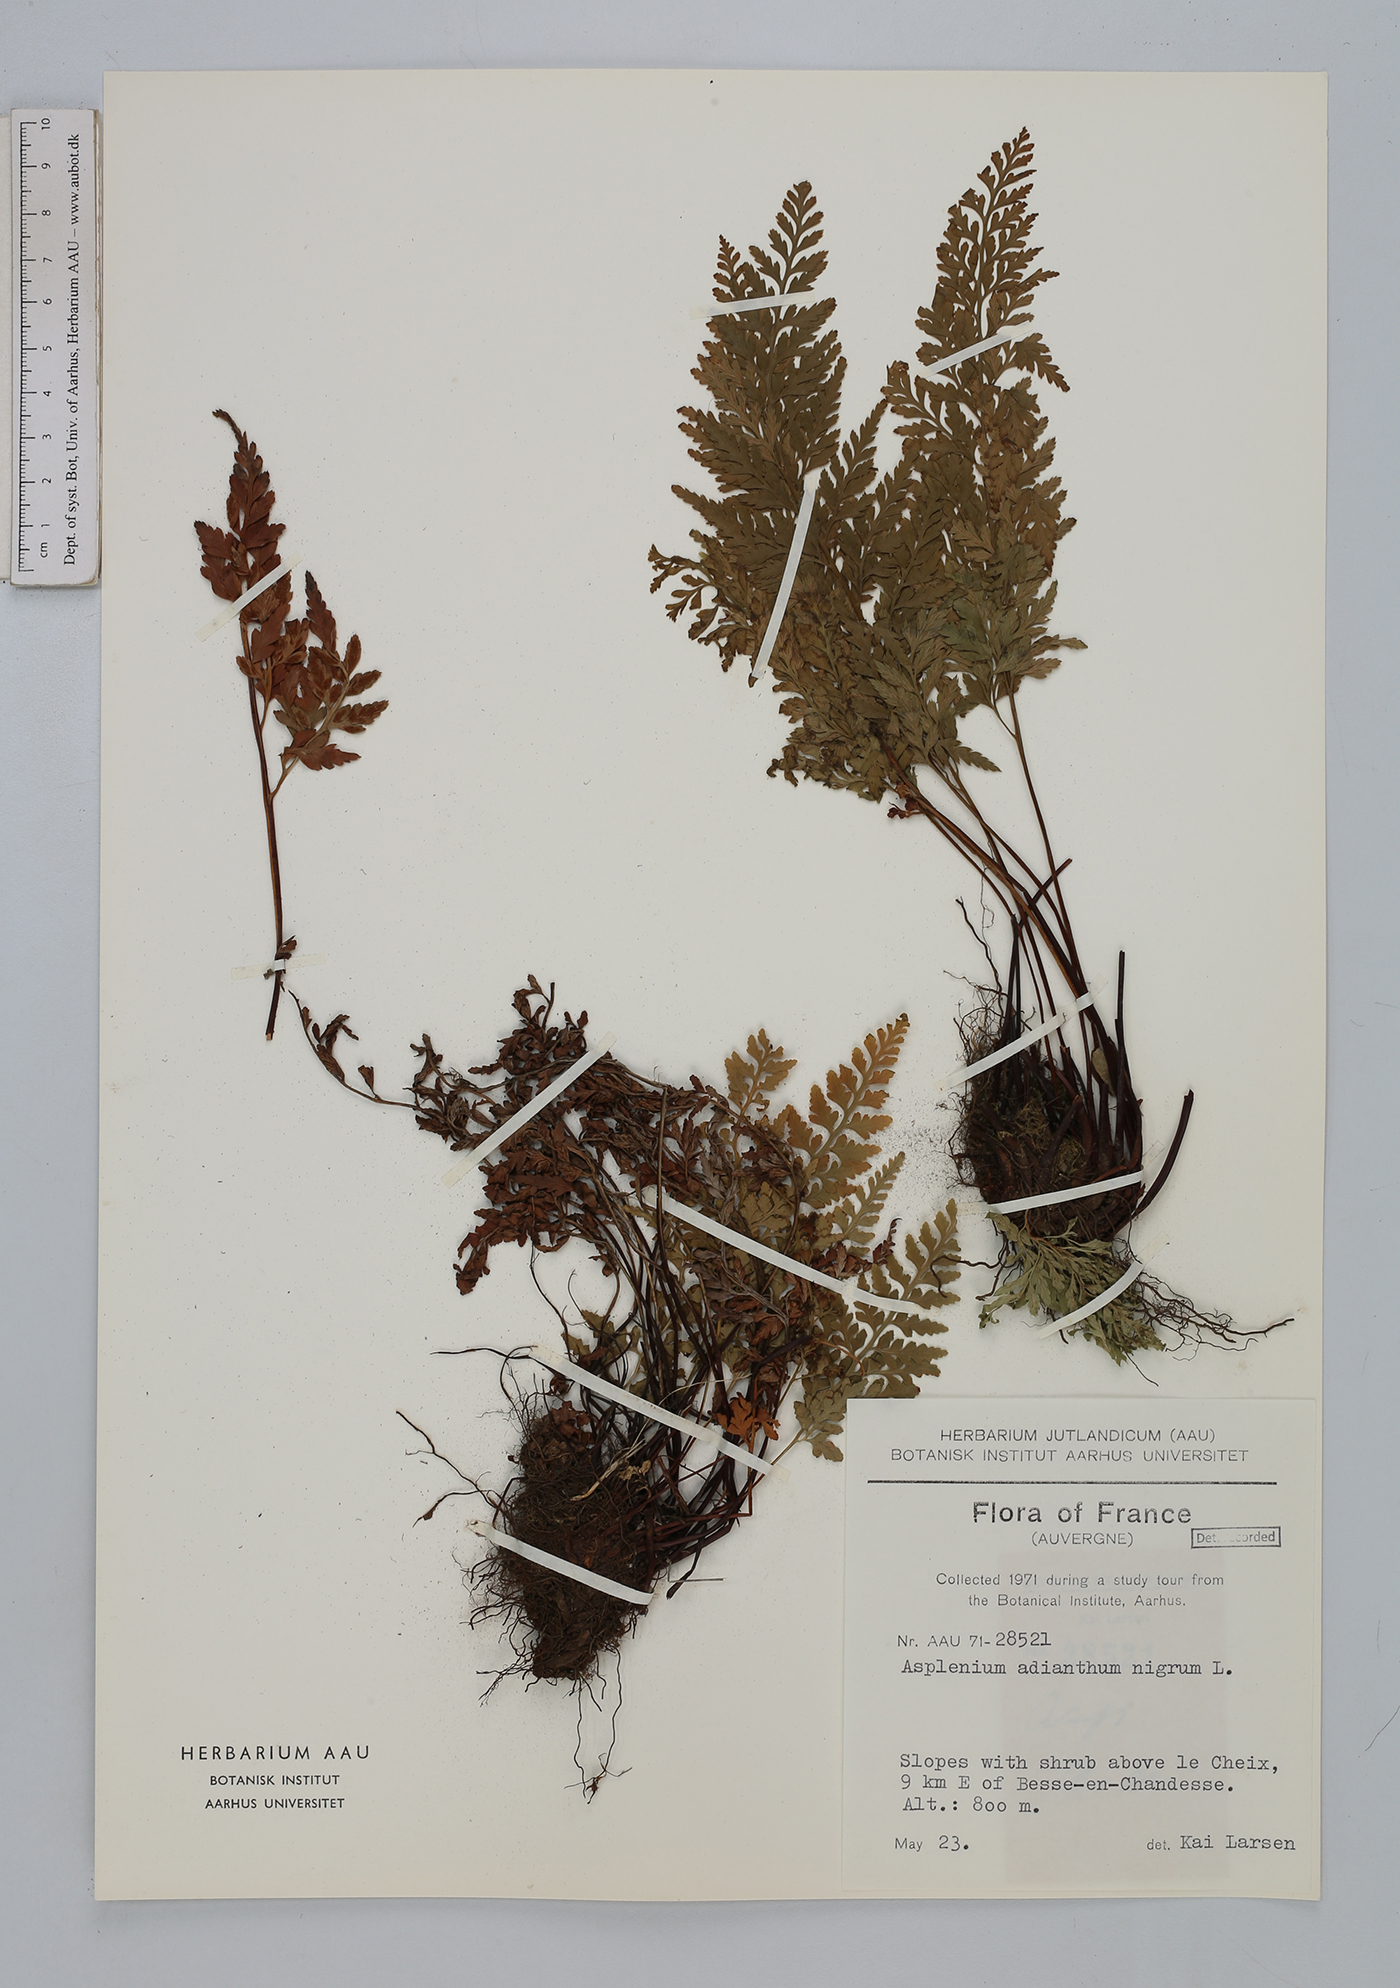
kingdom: Plantae
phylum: Tracheophyta
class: Polypodiopsida
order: Polypodiales
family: Aspleniaceae
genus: Asplenium
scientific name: Asplenium adiantum-nigrum
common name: Black spleenwort
